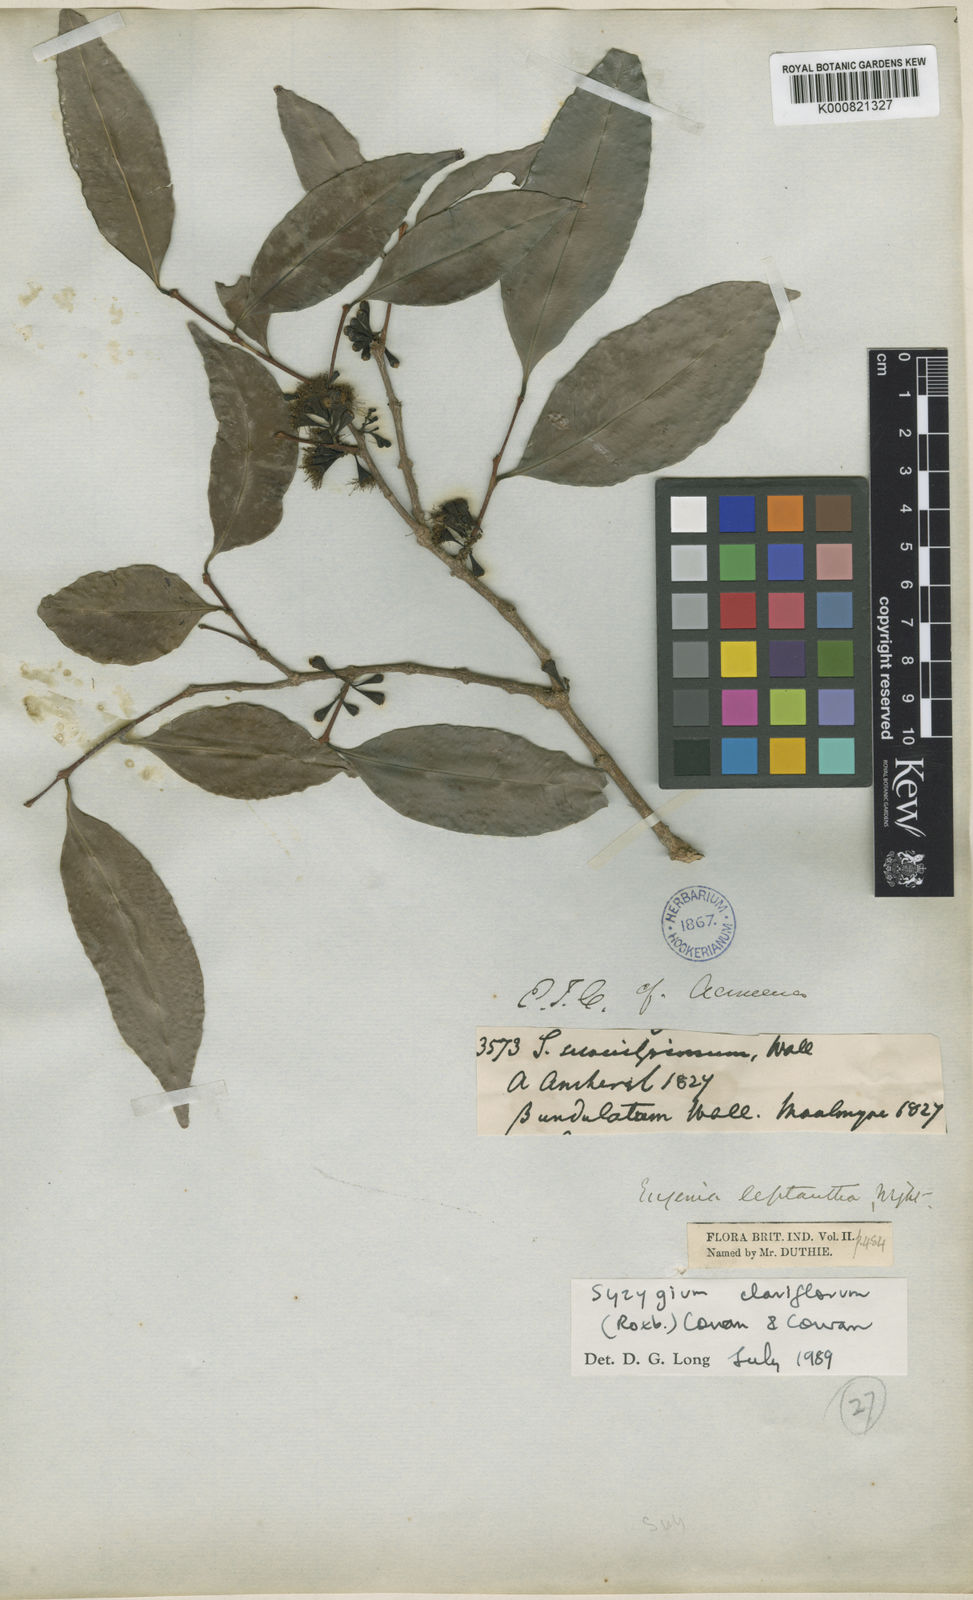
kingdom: Plantae
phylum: Tracheophyta
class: Magnoliopsida
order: Myrtales
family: Myrtaceae
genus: Syzygium
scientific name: Syzygium claviflorum
